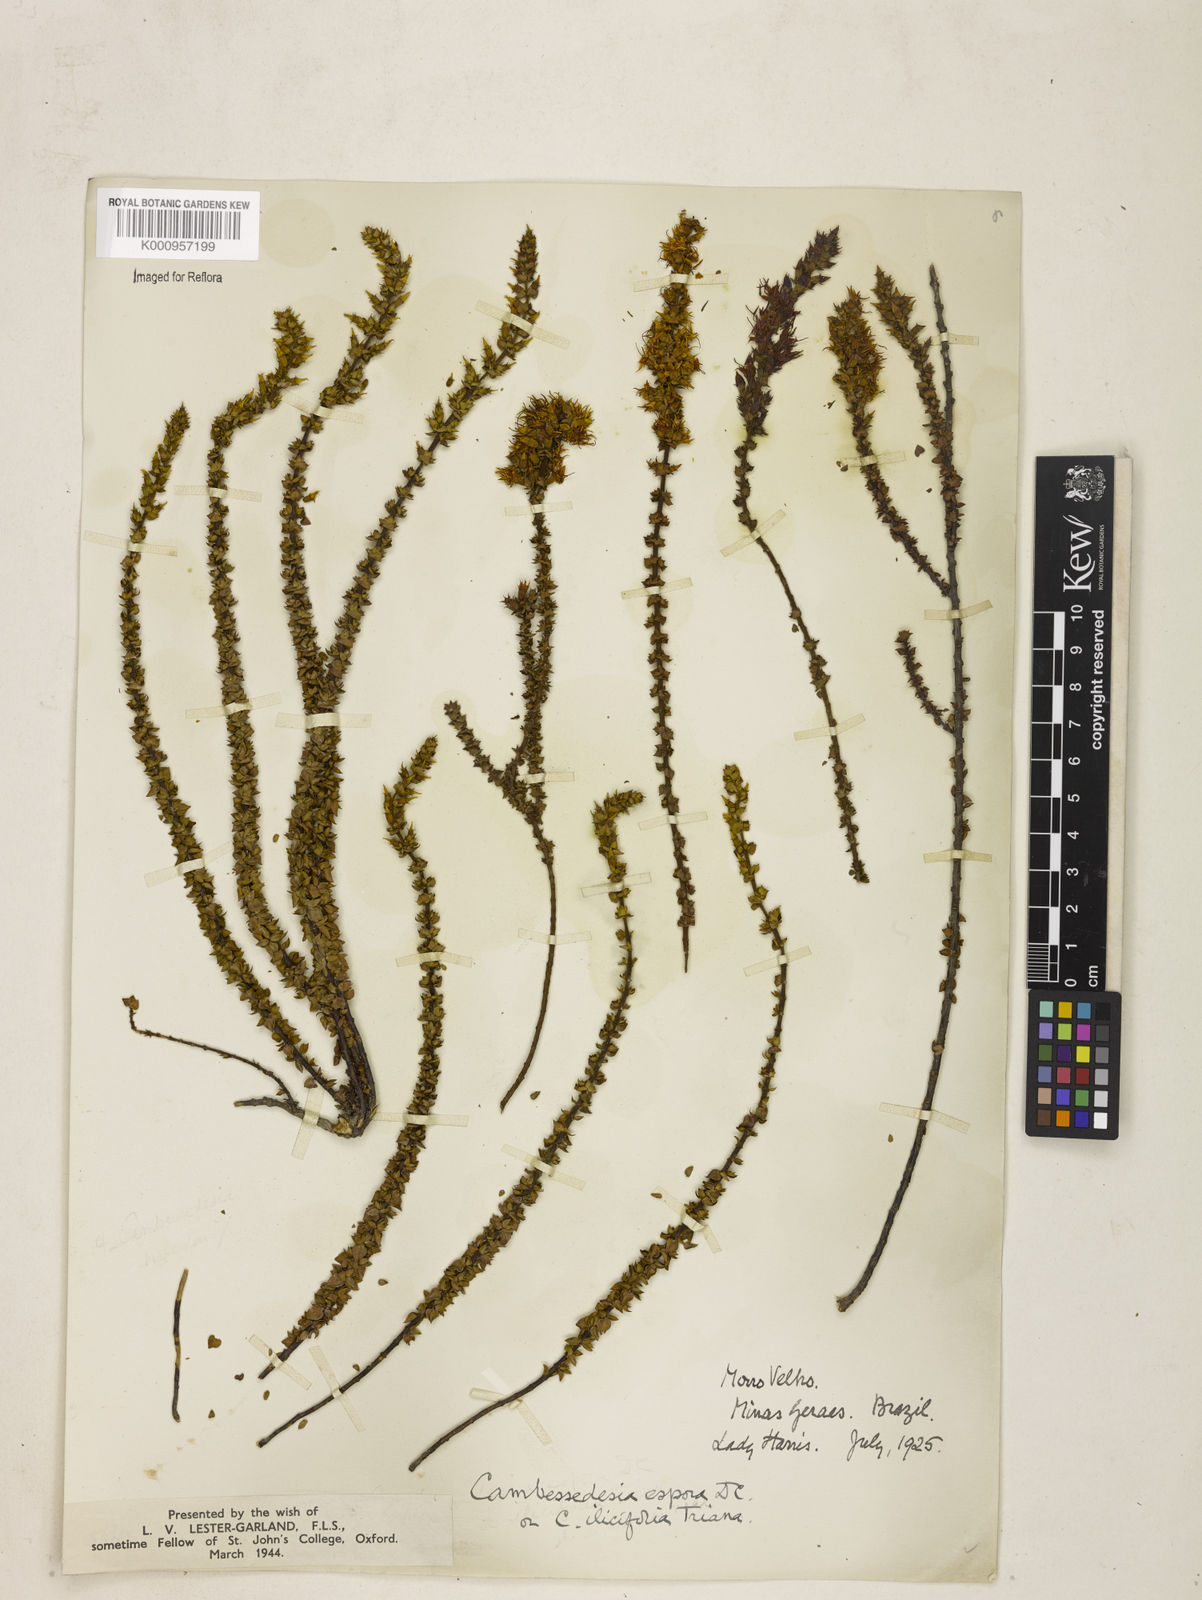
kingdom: Plantae
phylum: Tracheophyta
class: Magnoliopsida
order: Myrtales
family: Melastomataceae
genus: Cambessedesia
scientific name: Cambessedesia espora
